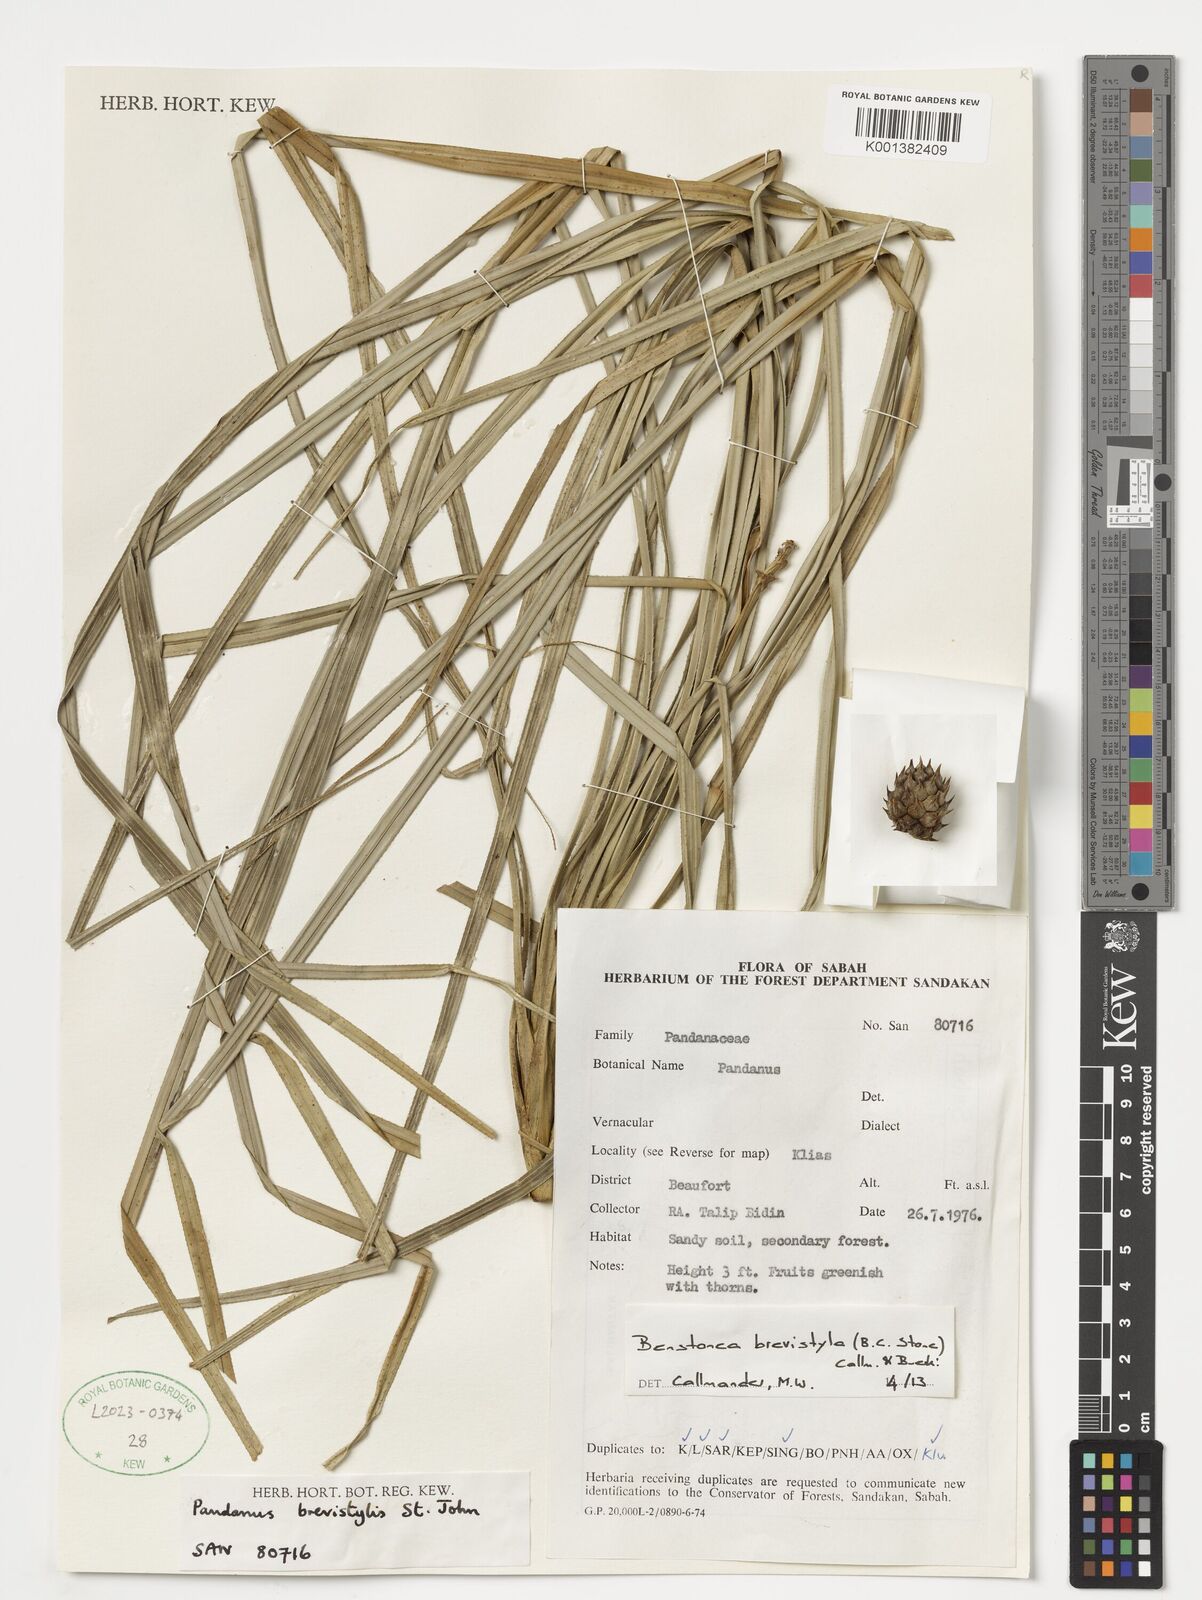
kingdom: Plantae
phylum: Tracheophyta
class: Liliopsida
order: Pandanales
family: Pandanaceae
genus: Benstonea
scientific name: Benstonea brevistylis
